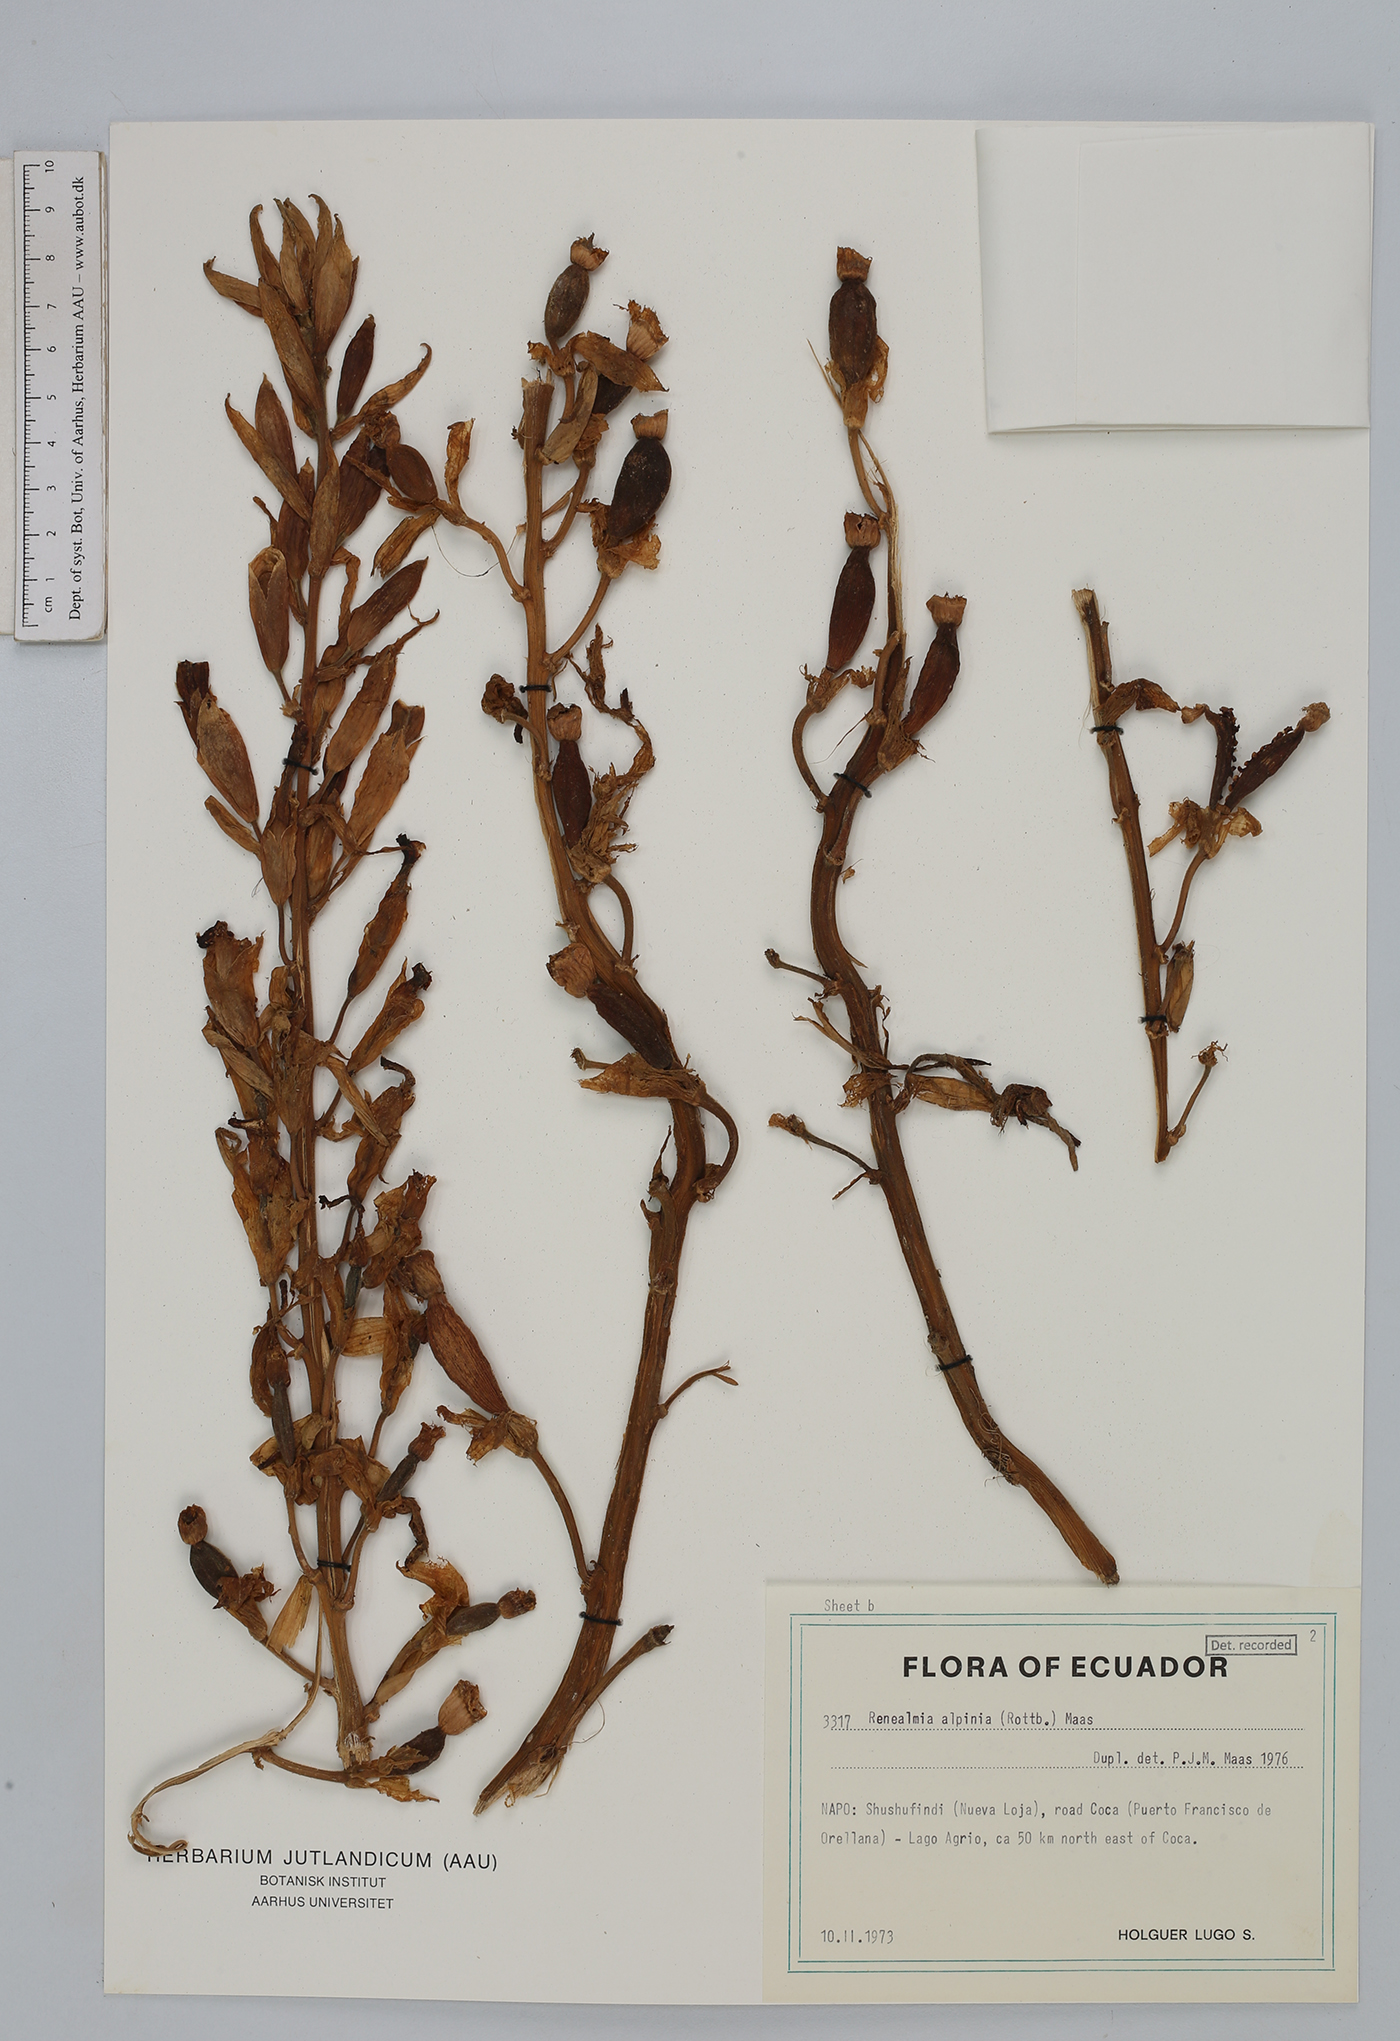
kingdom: Plantae
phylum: Tracheophyta
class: Liliopsida
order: Zingiberales
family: Zingiberaceae
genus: Renealmia
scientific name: Renealmia alpinia
